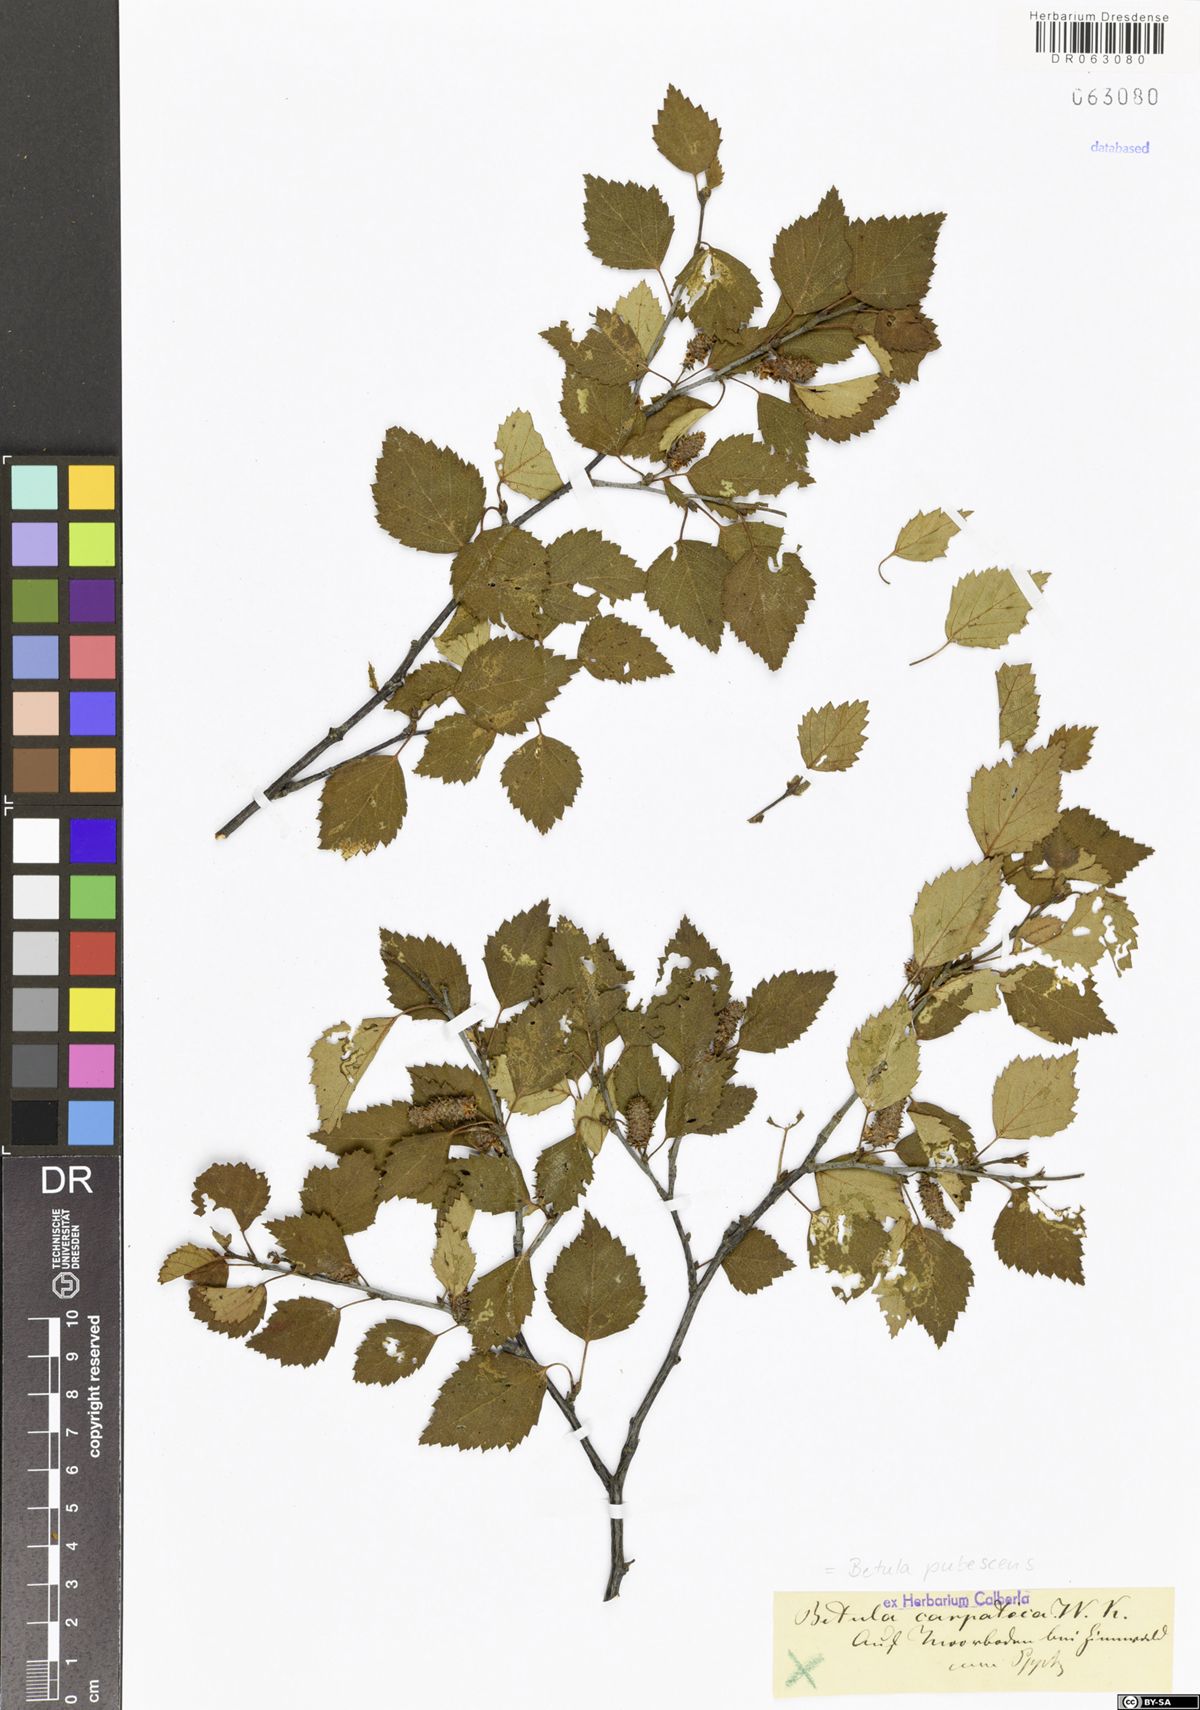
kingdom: Plantae
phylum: Tracheophyta
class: Magnoliopsida
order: Fagales
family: Betulaceae
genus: Betula
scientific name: Betula pubescens
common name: Downy birch
